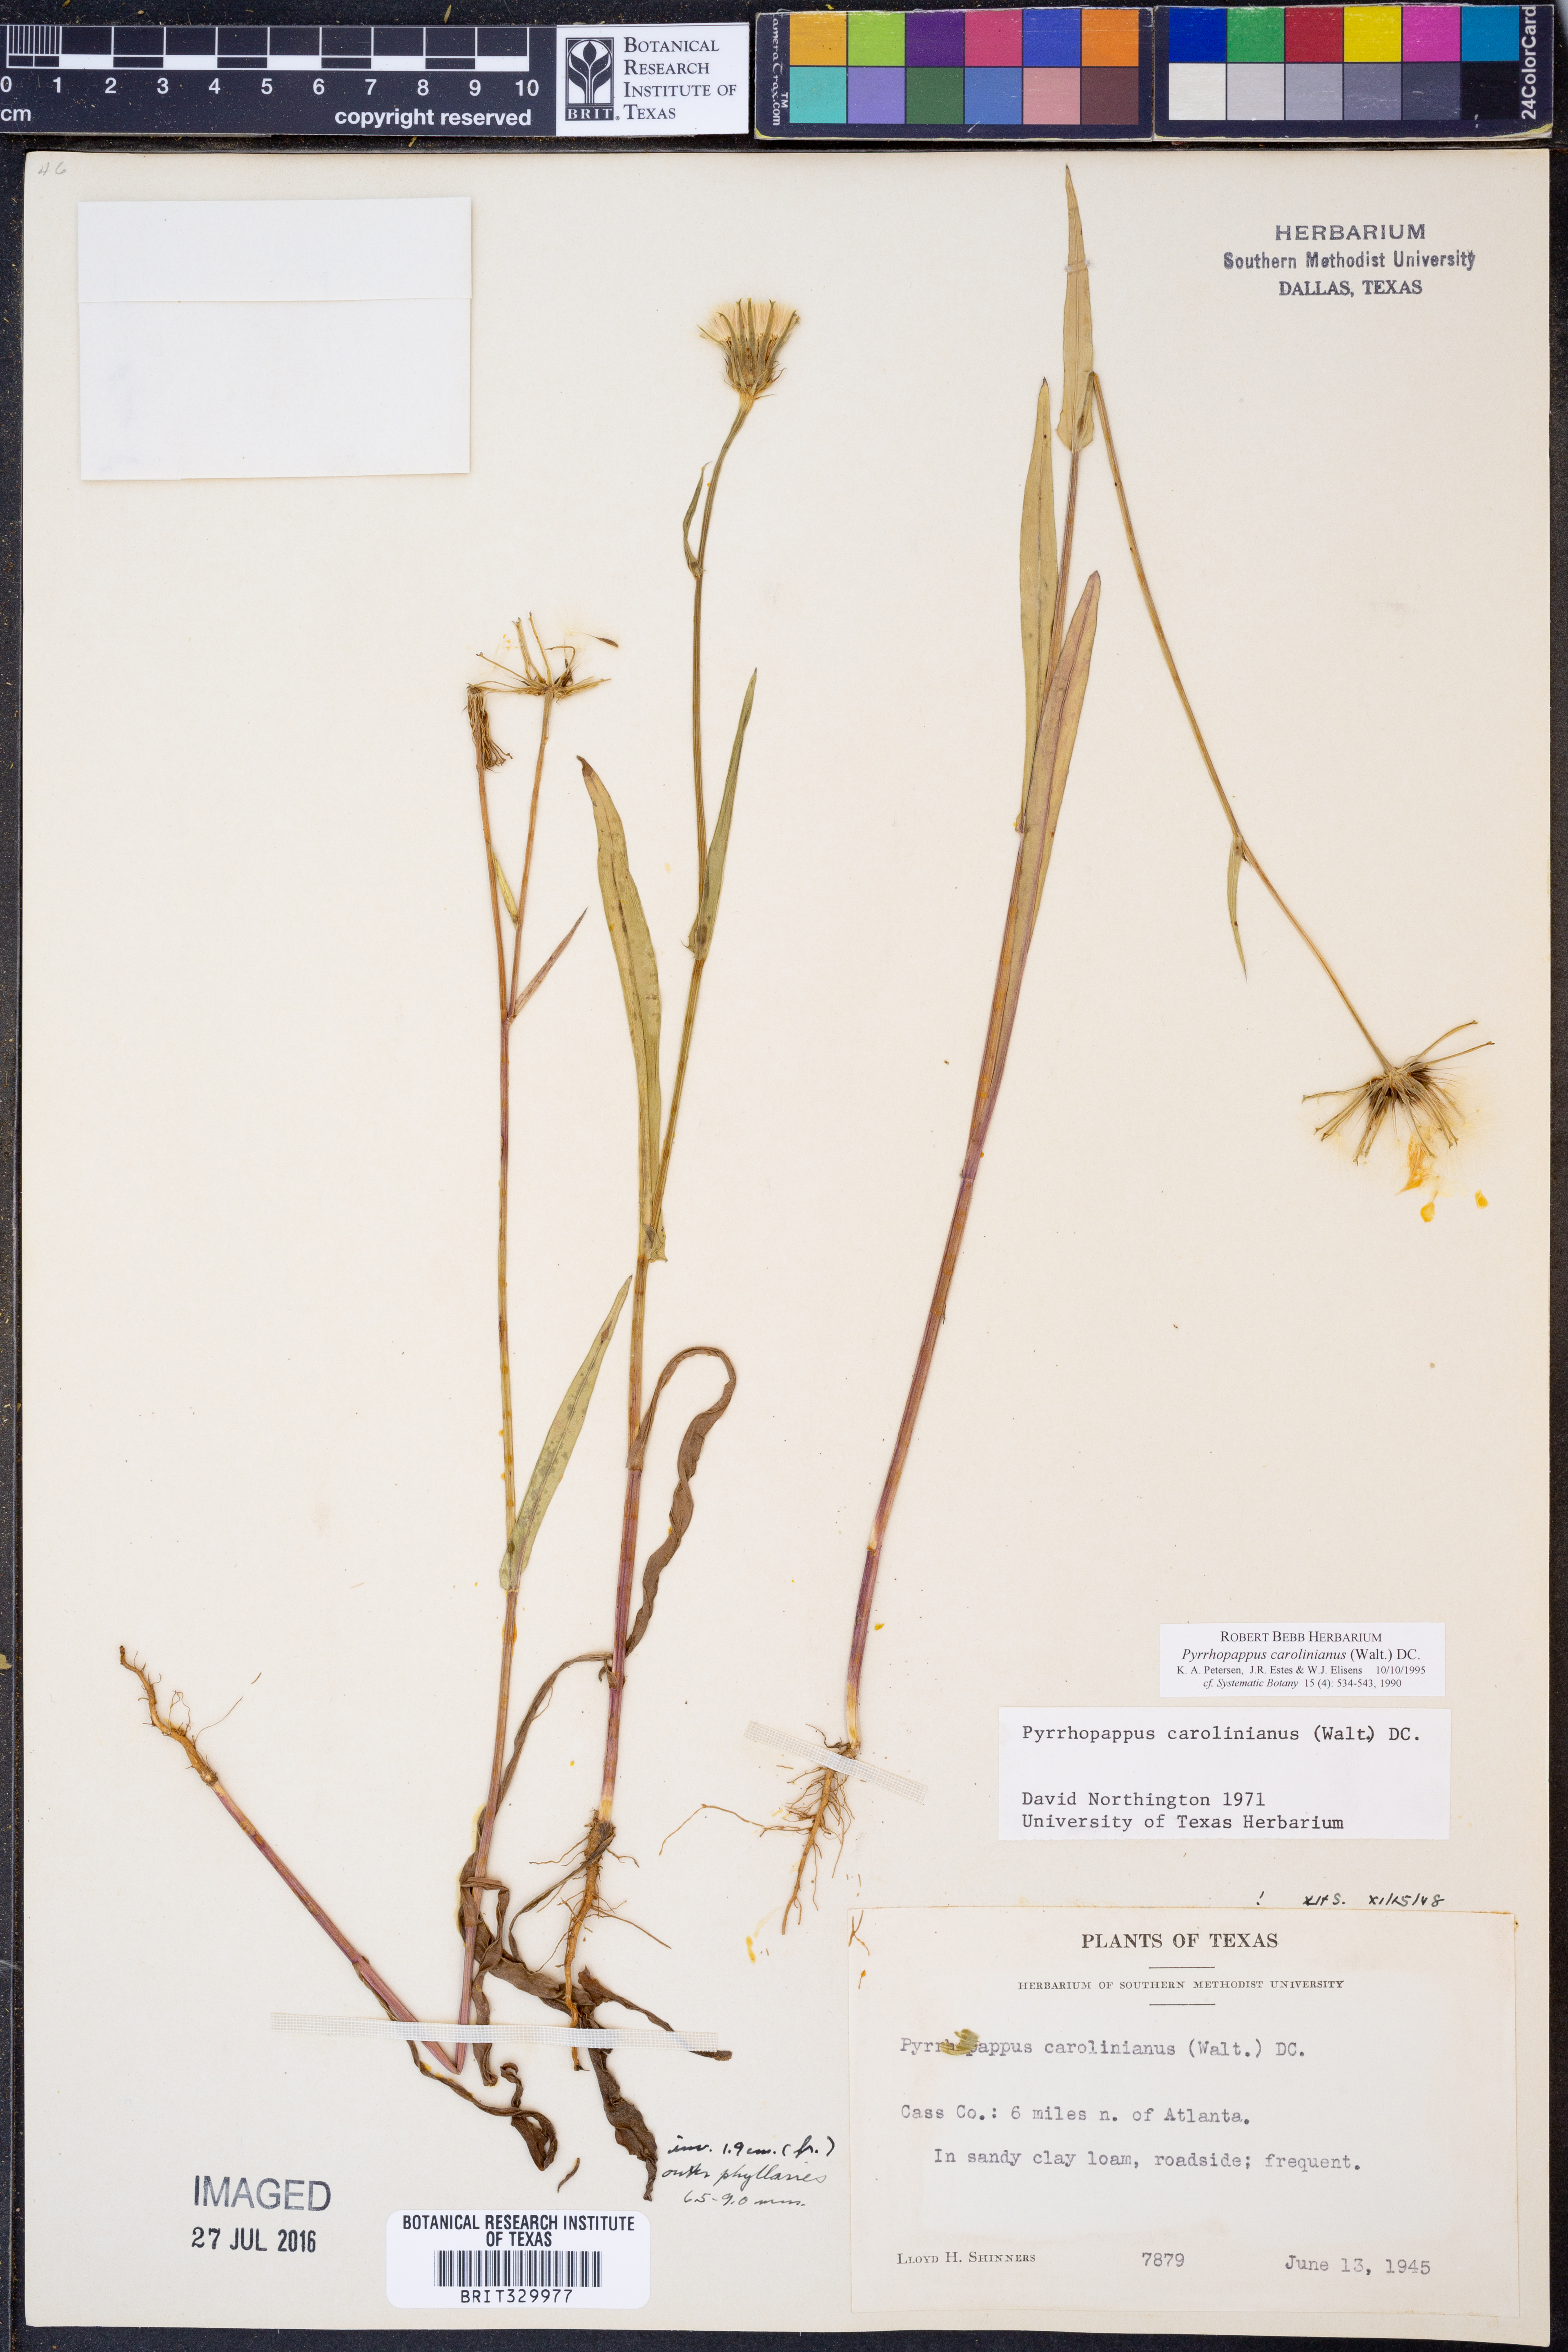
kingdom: Plantae
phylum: Tracheophyta
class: Magnoliopsida
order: Asterales
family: Asteraceae
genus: Pyrrhopappus
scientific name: Pyrrhopappus carolinianus
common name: Carolina desert-chicory
